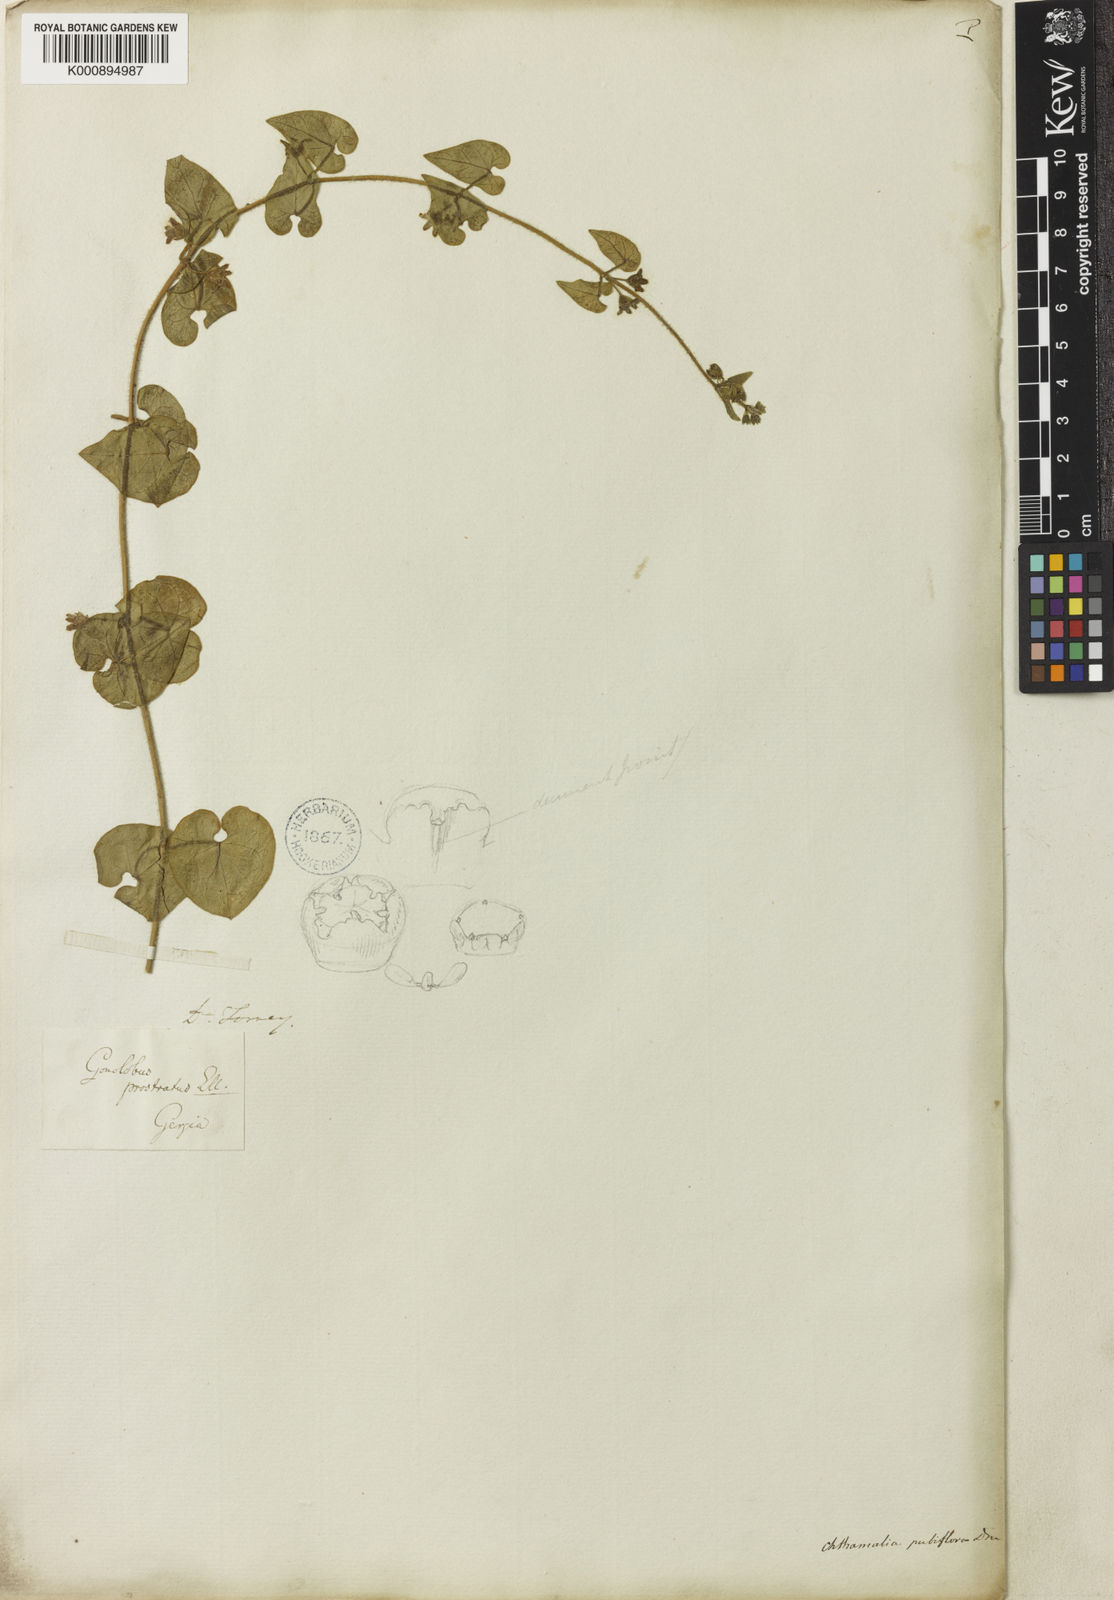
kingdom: Plantae
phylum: Tracheophyta
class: Magnoliopsida
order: Gentianales
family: Apocynaceae
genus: Chthamalia
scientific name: Chthamalia pubiflora
